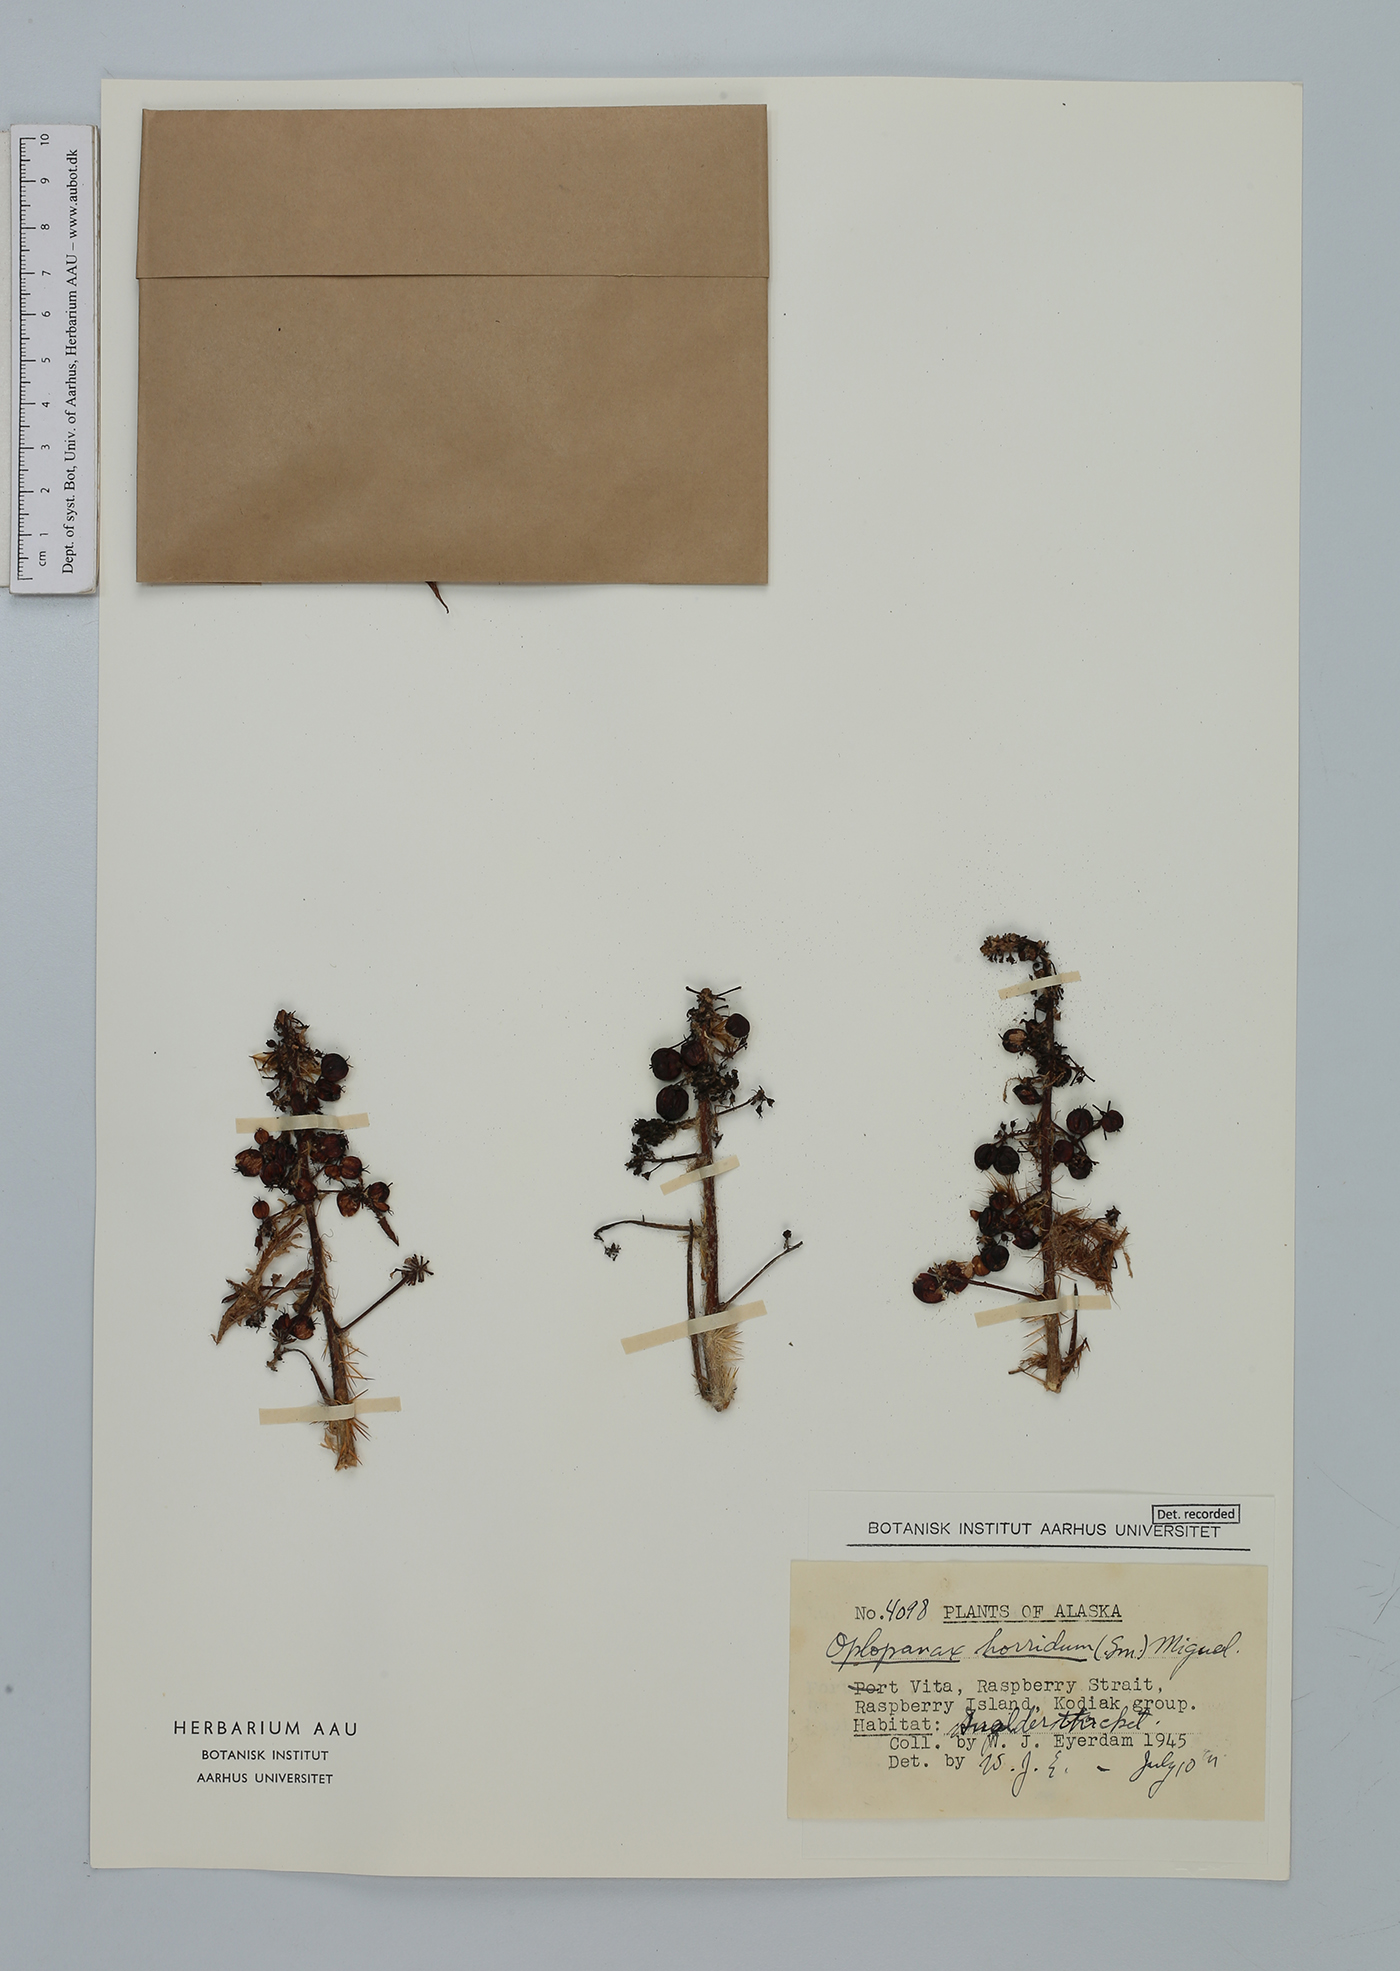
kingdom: Plantae
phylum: Tracheophyta
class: Magnoliopsida
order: Apiales
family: Araliaceae
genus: Oplopanax
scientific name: Oplopanax horridus
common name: Devil's walking-stick
